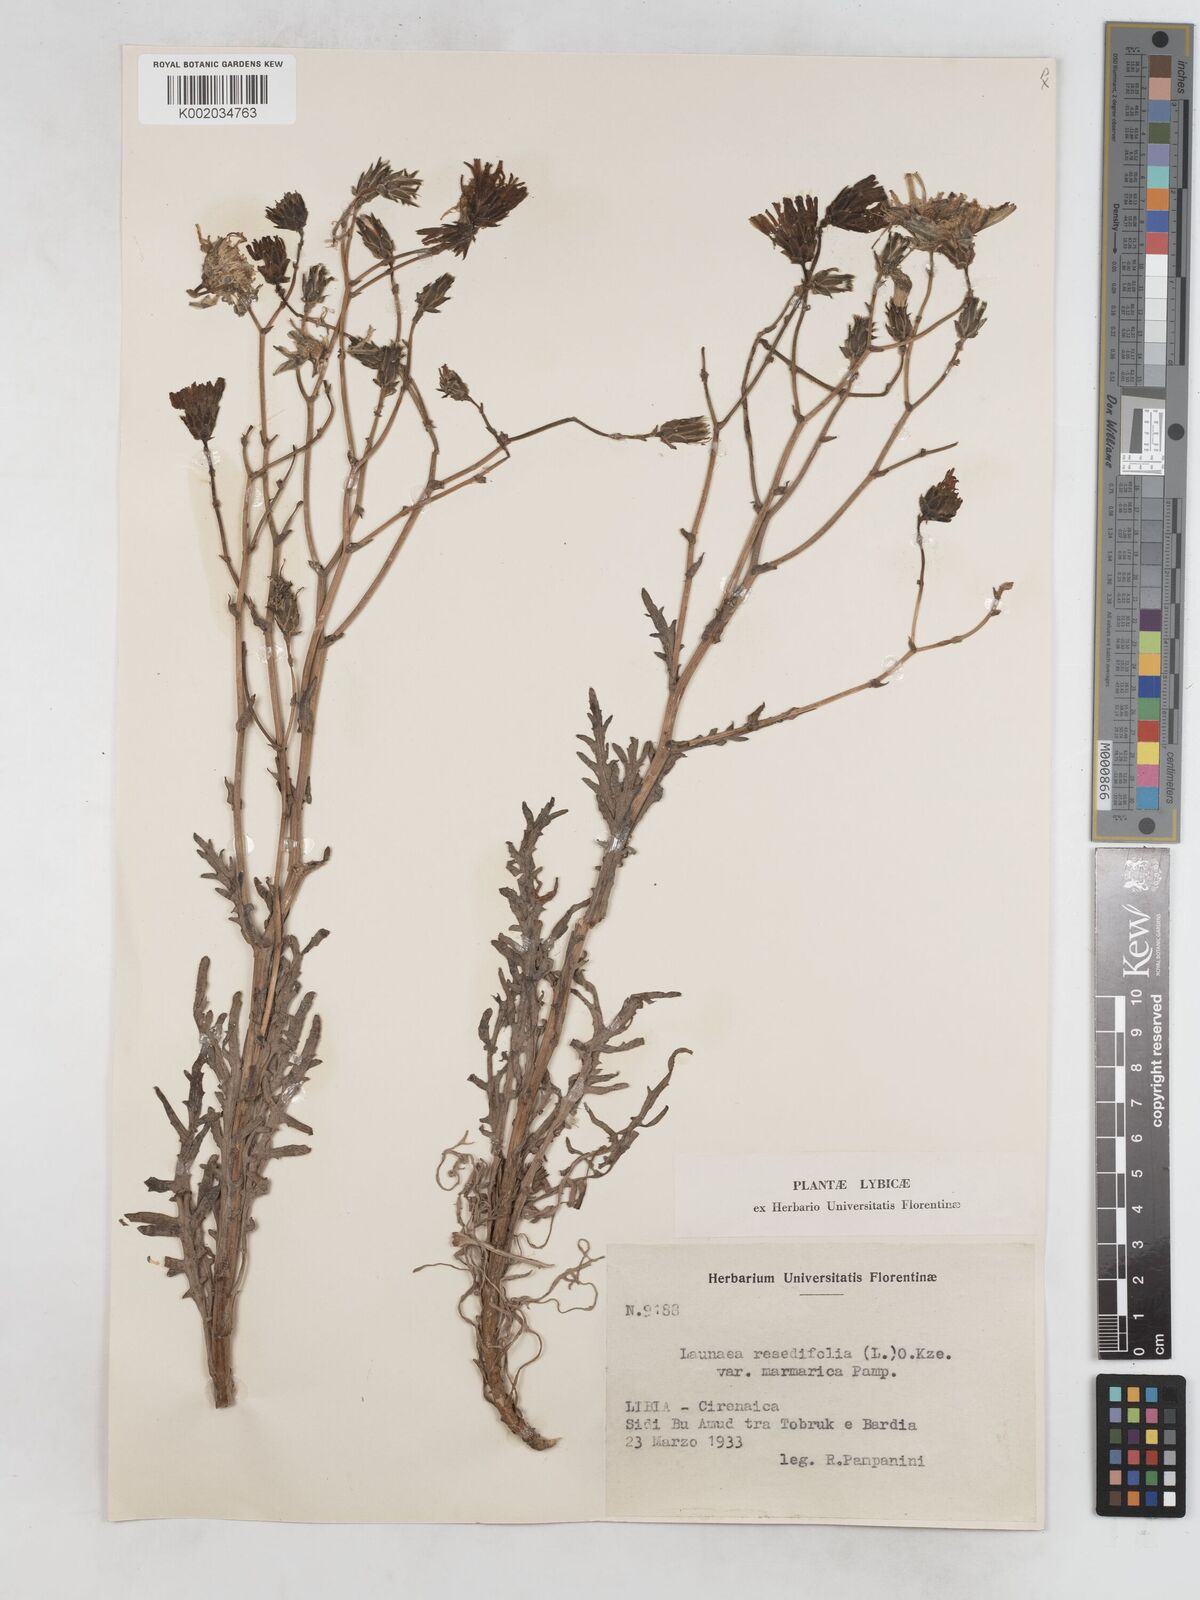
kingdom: Plantae
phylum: Tracheophyta
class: Magnoliopsida
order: Asterales
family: Asteraceae
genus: Launaea
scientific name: Launaea fragilis
